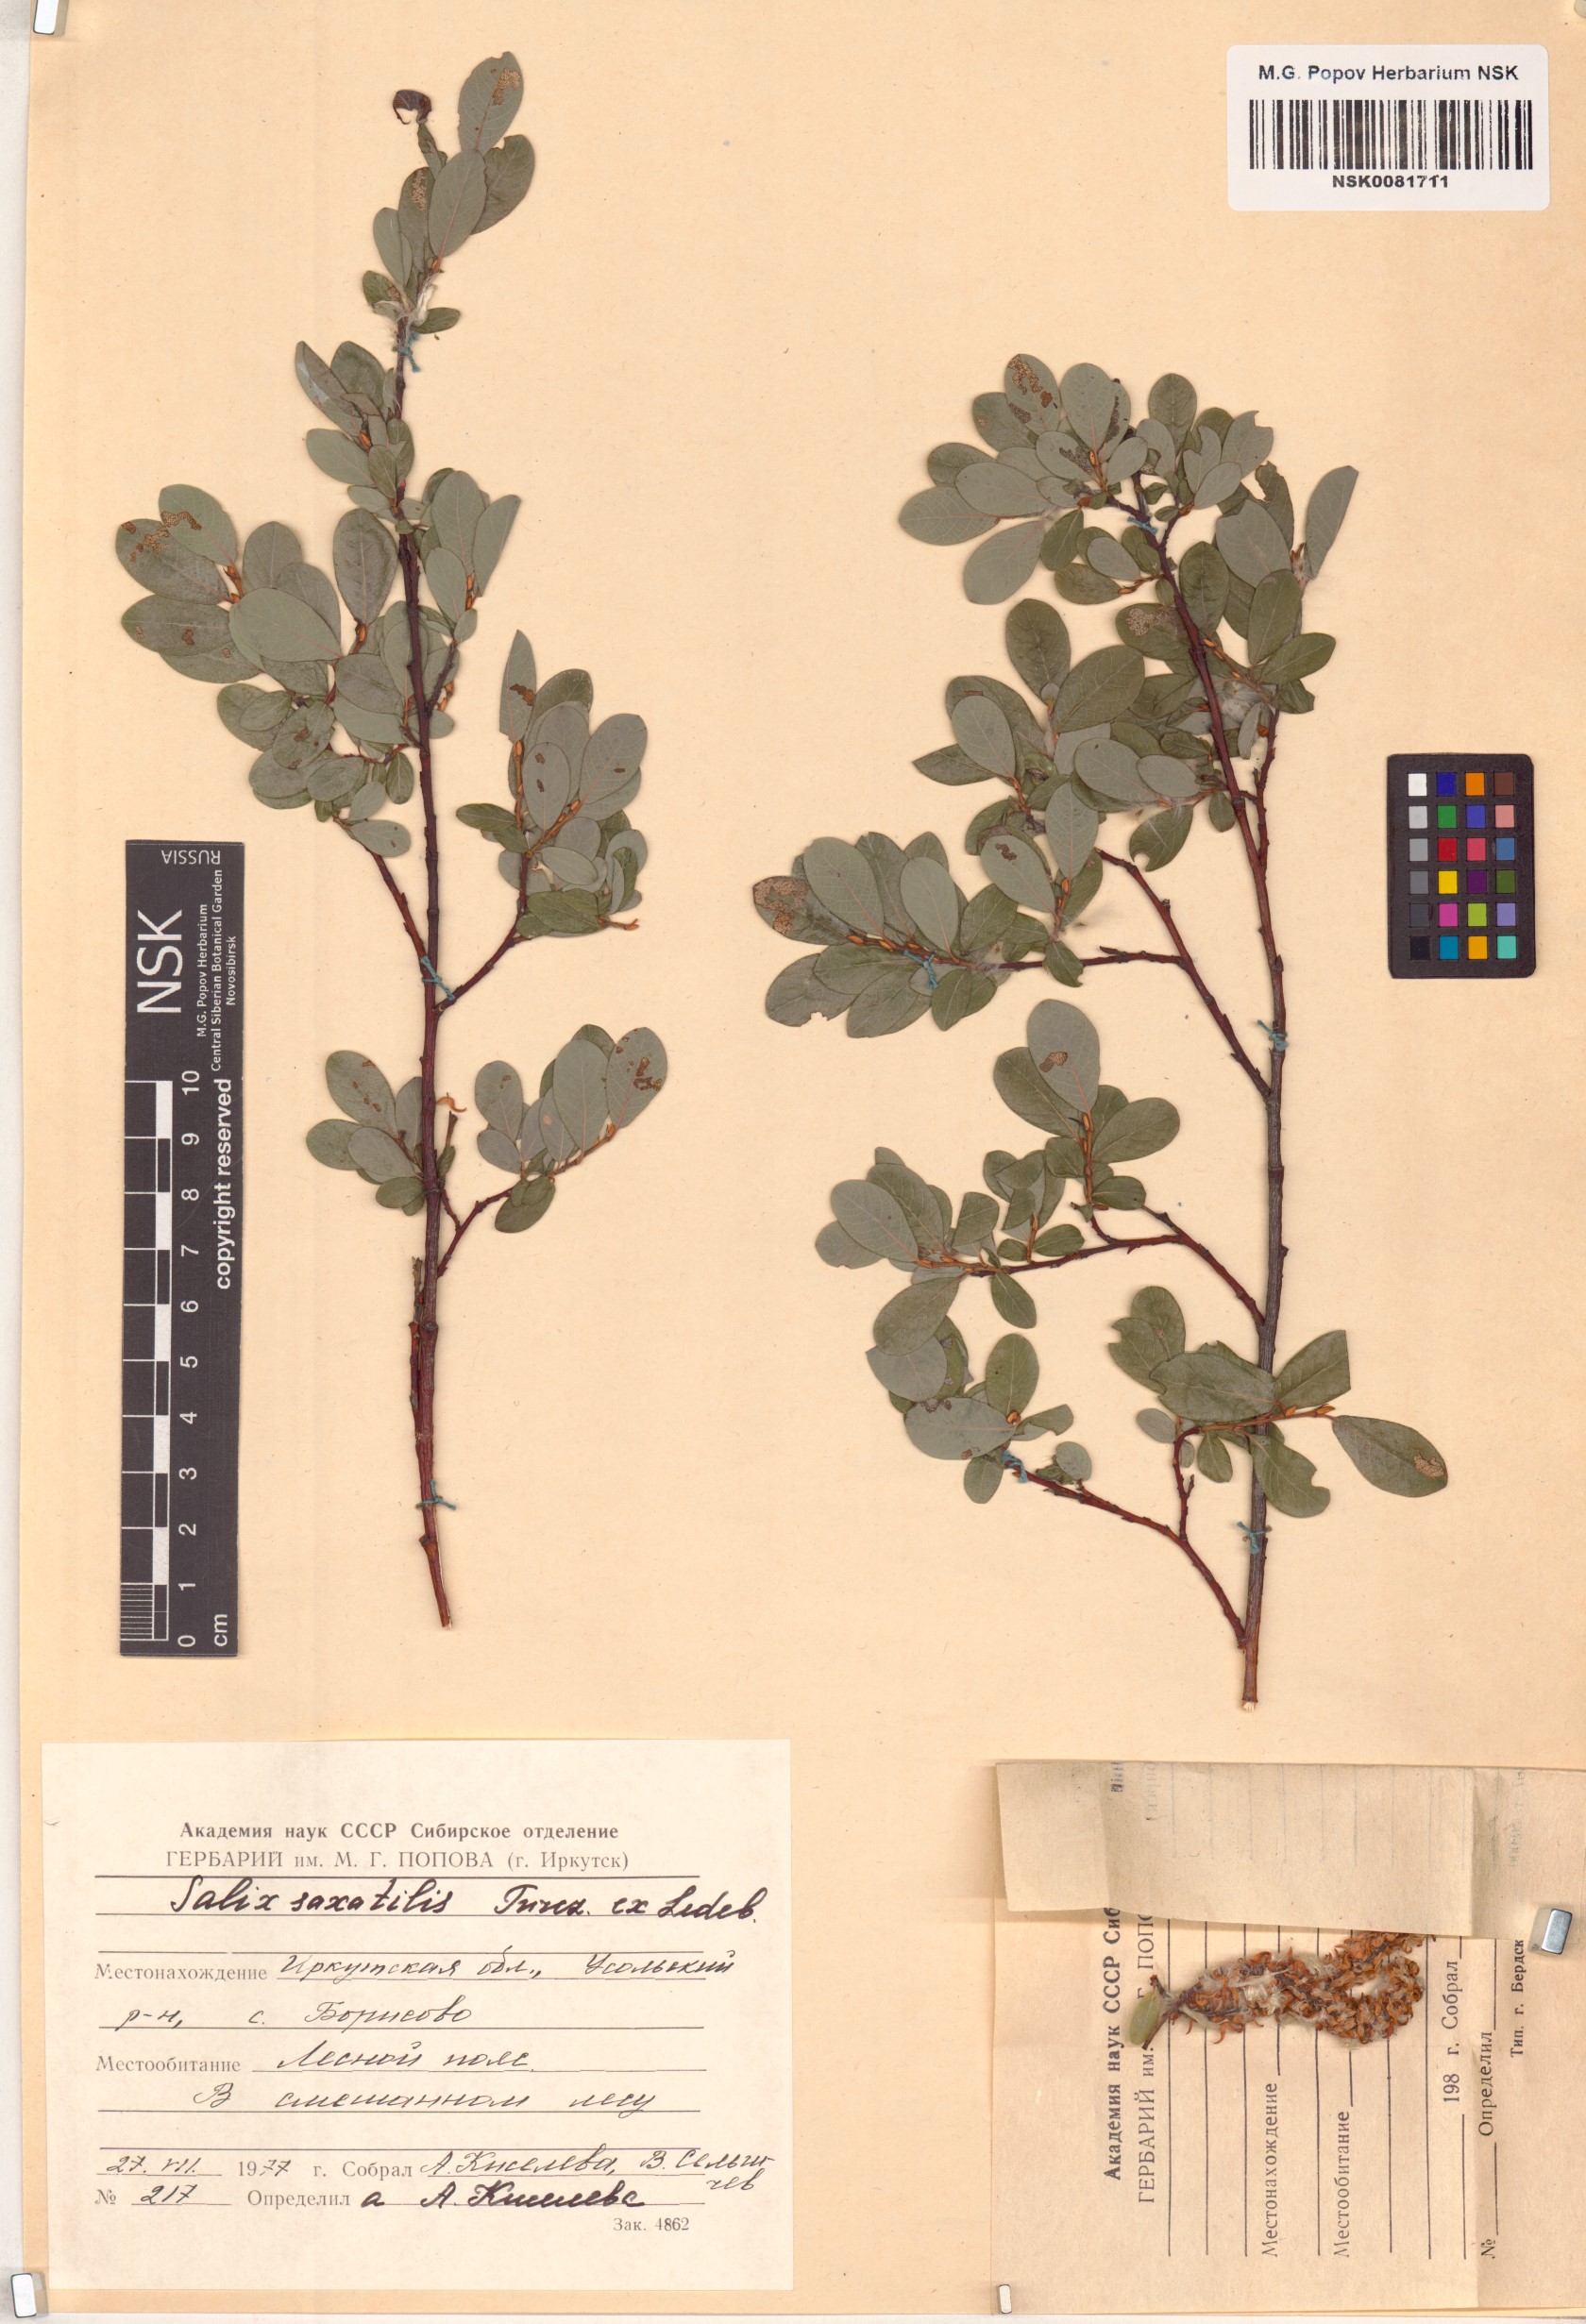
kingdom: Plantae
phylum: Tracheophyta
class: Magnoliopsida
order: Malpighiales
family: Salicaceae
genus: Salix
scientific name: Salix saxatilis
